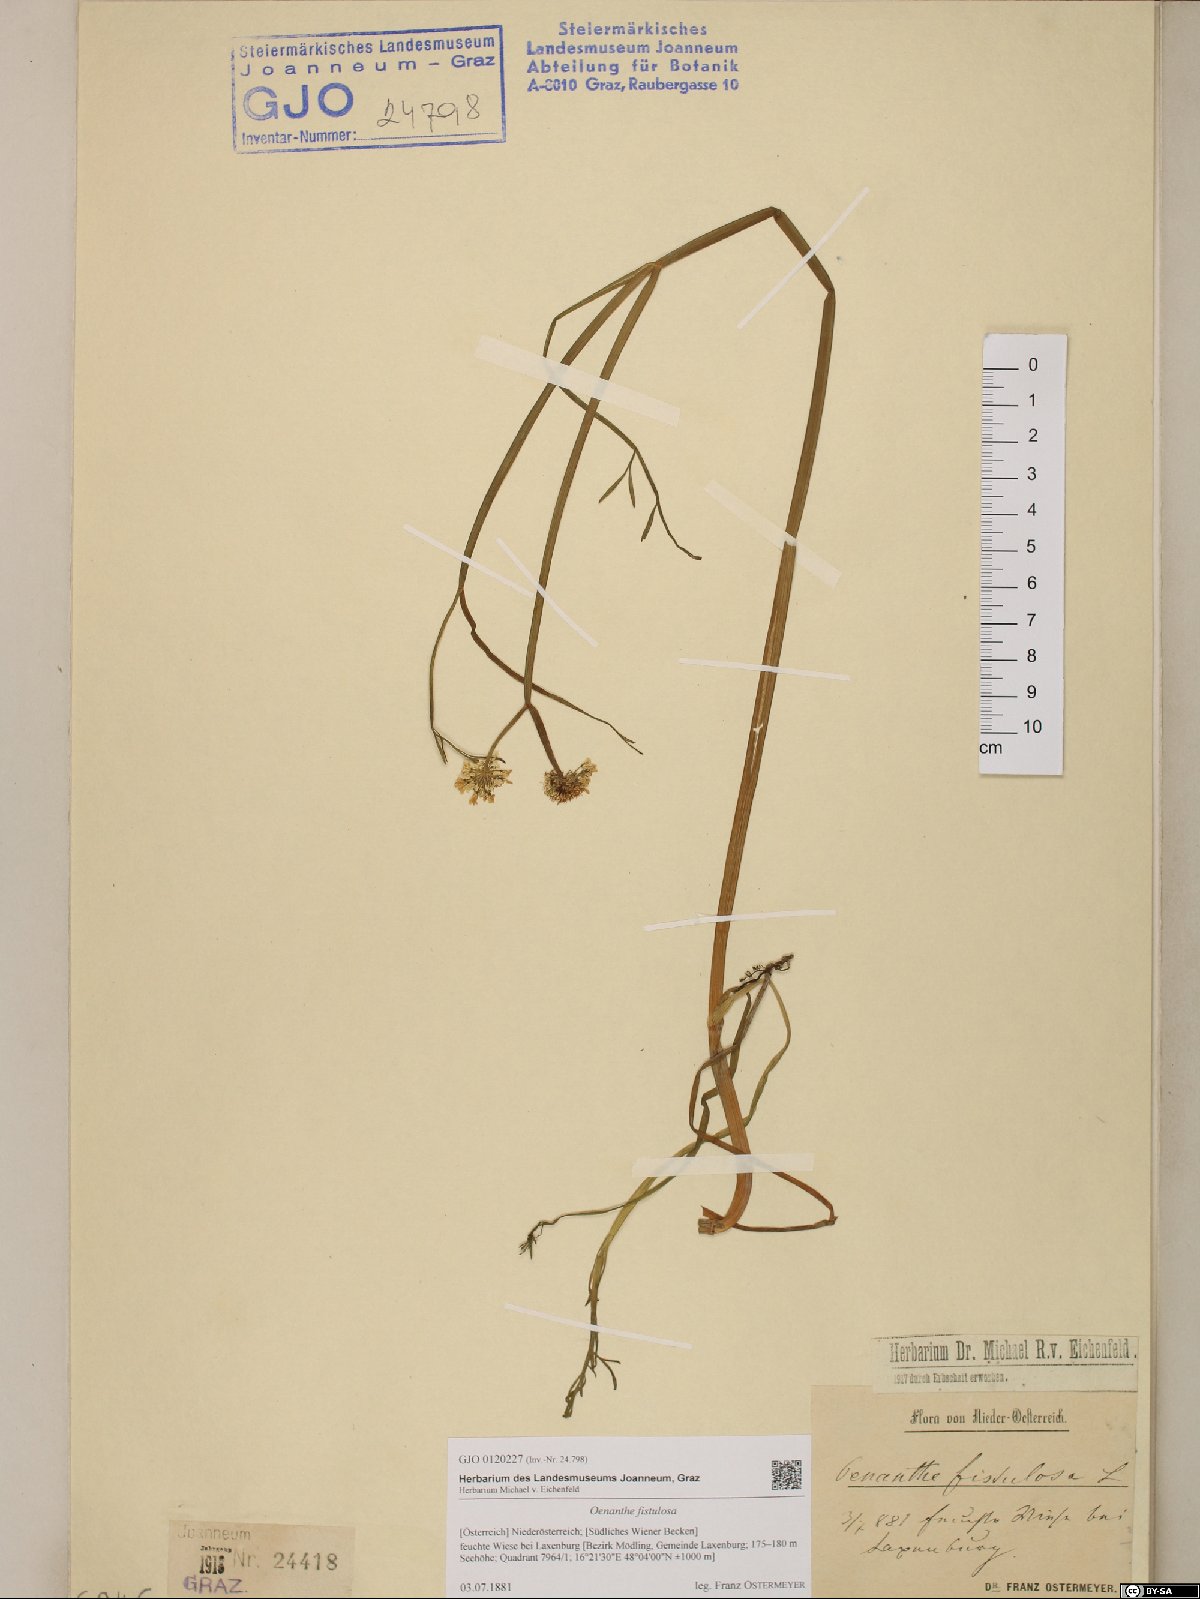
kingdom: Plantae
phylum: Tracheophyta
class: Magnoliopsida
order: Apiales
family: Apiaceae
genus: Oenanthe
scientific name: Oenanthe fistulosa
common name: Tubular water-dropwort
